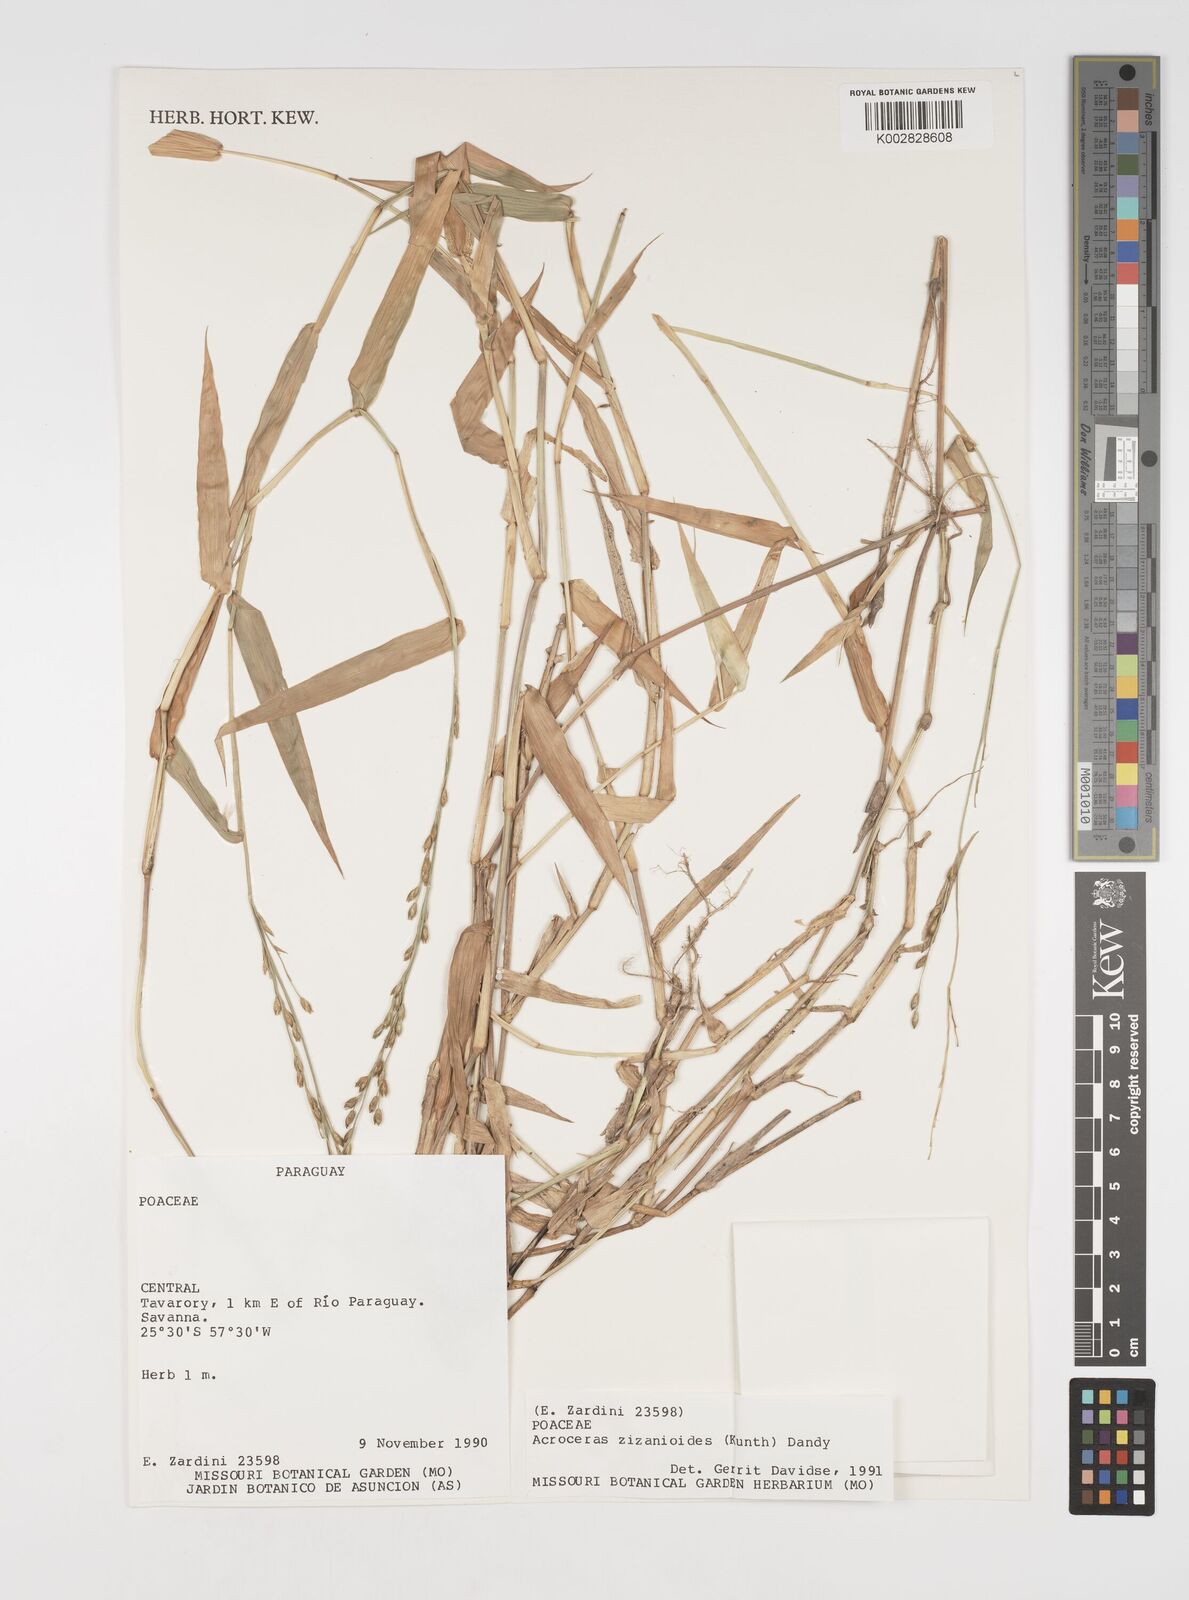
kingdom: Plantae
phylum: Tracheophyta
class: Liliopsida
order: Poales
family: Poaceae
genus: Acroceras
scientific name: Acroceras zizanioides
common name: Oat grass
